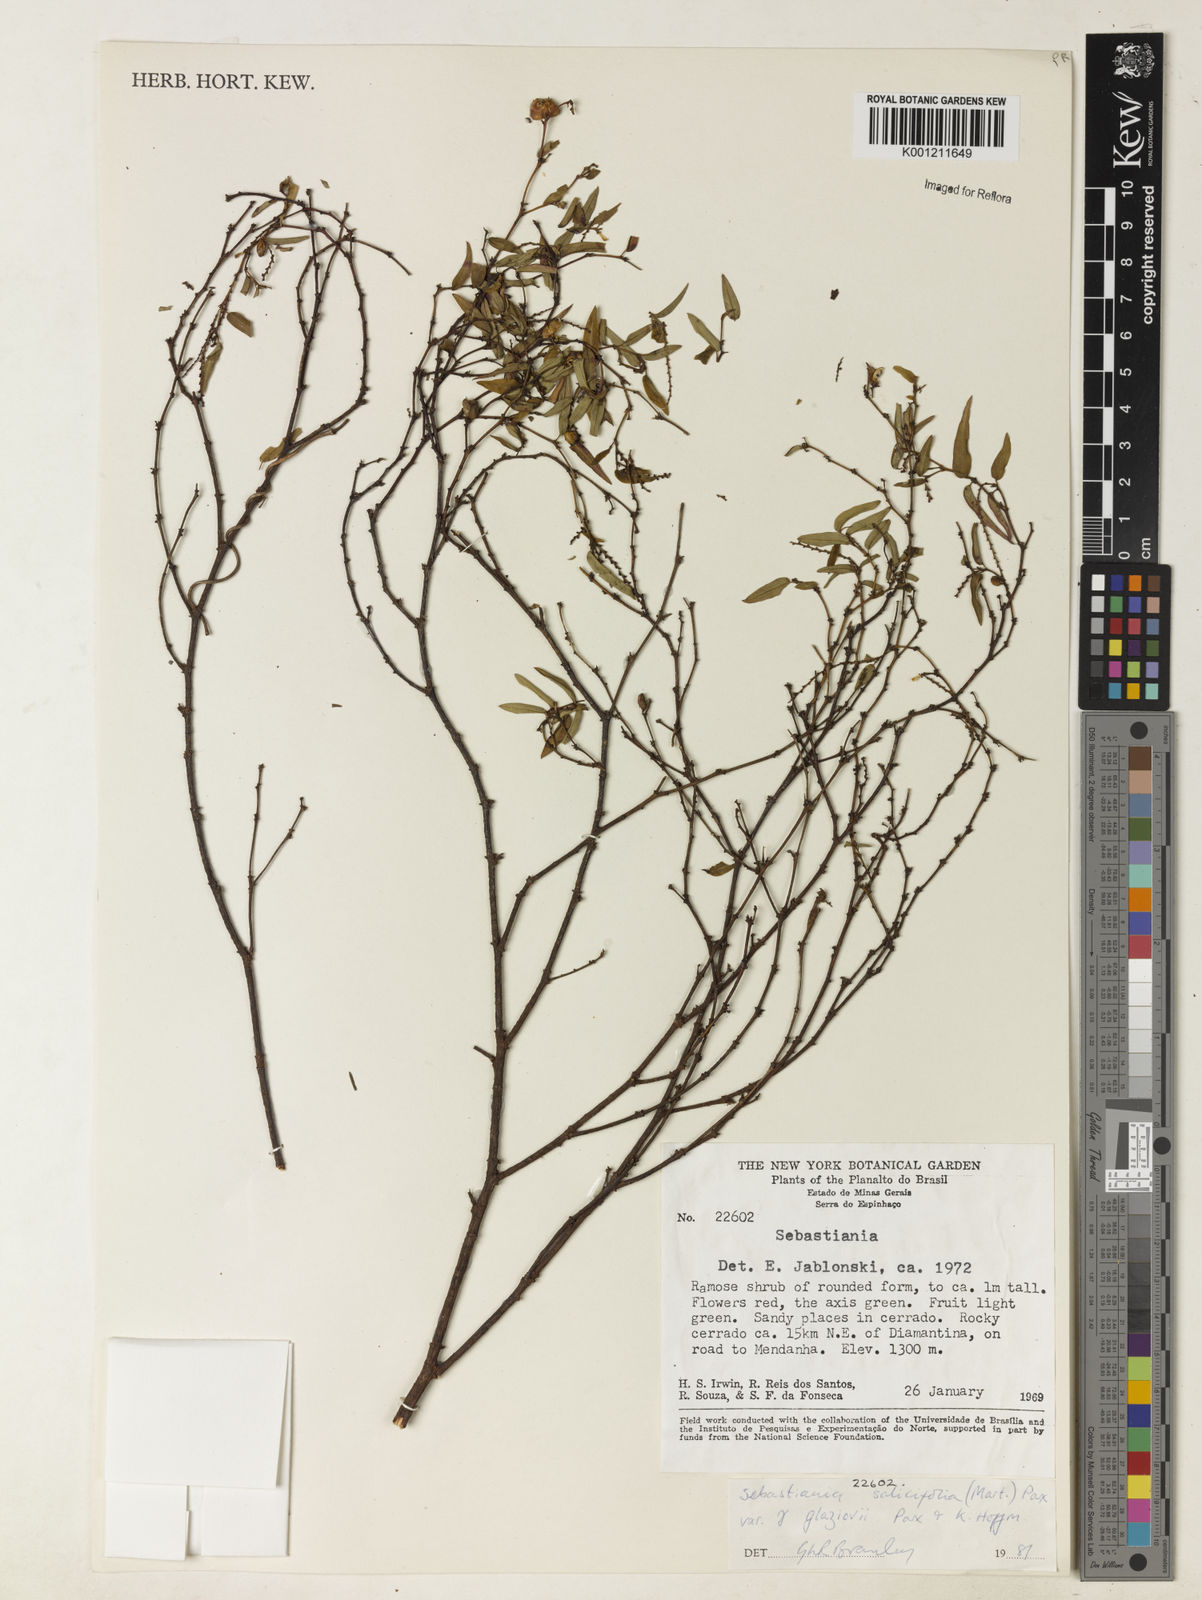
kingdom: Plantae
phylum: Tracheophyta
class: Magnoliopsida
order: Malpighiales
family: Euphorbiaceae
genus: Microstachys
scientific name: Microstachys
